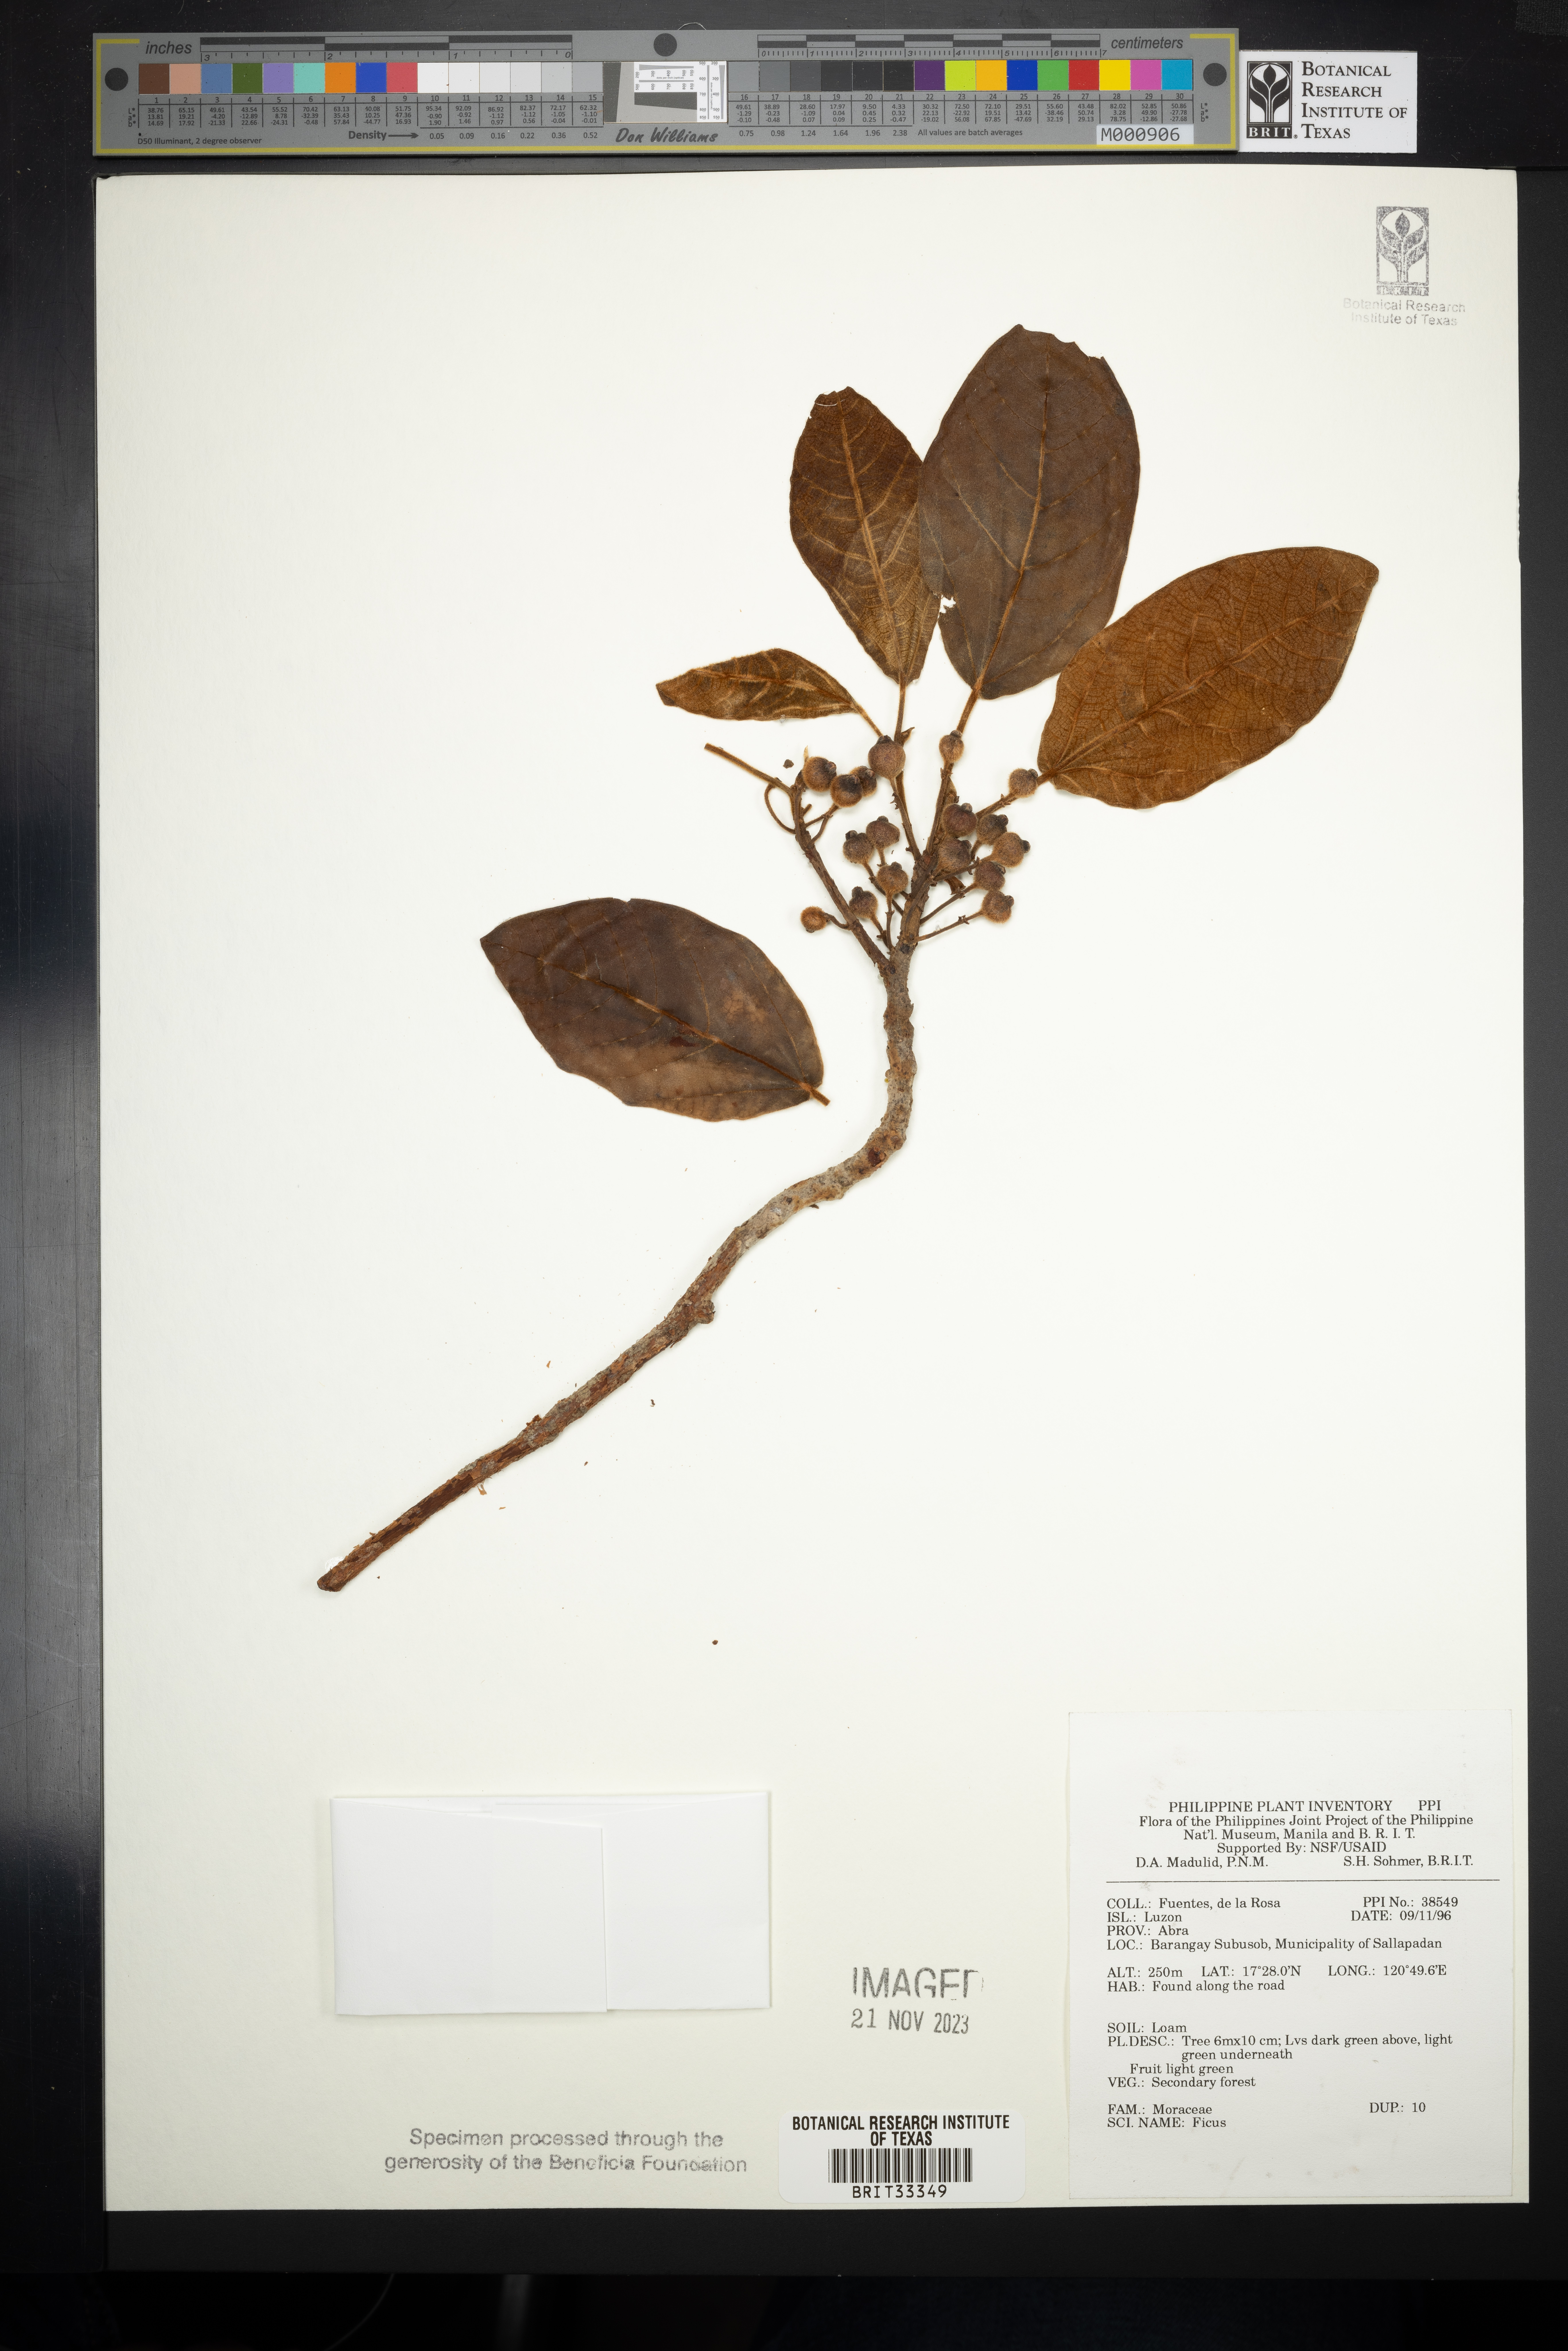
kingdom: Plantae
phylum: Tracheophyta
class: Magnoliopsida
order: Rosales
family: Moraceae
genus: Ficus
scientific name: Ficus
